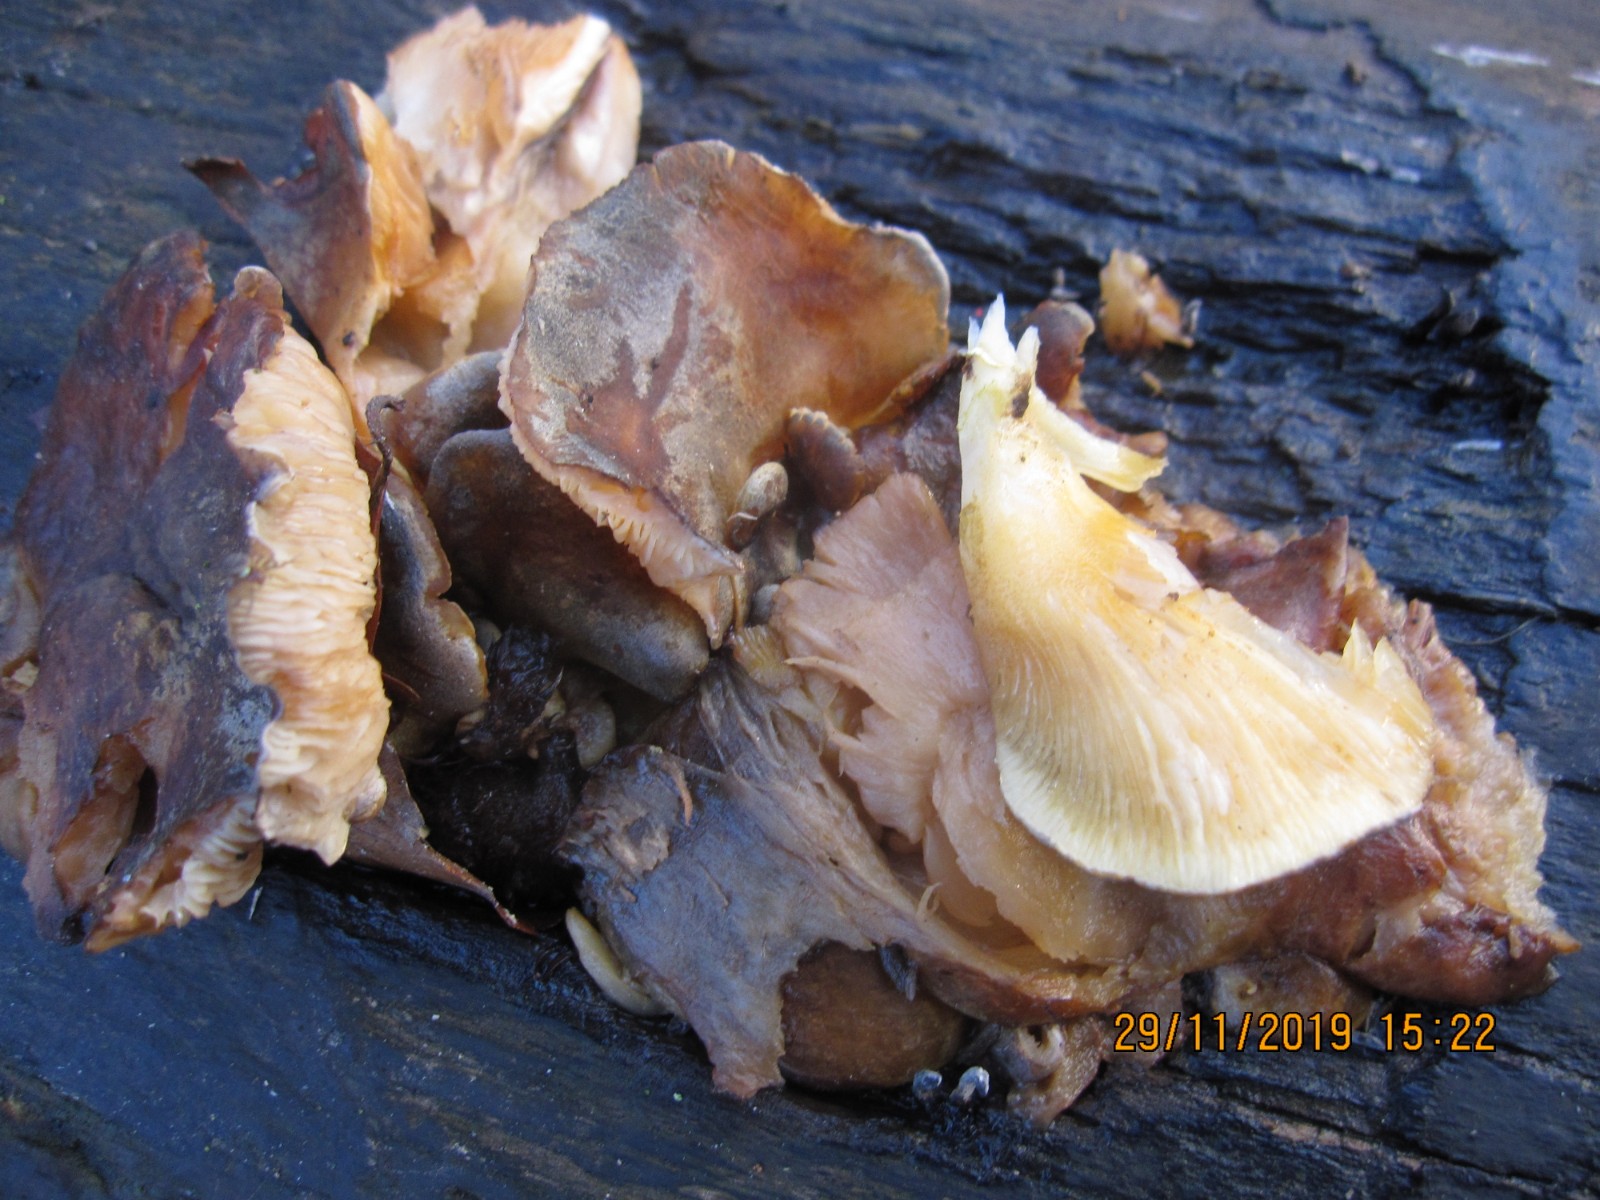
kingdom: Fungi
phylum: Basidiomycota
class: Agaricomycetes
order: Agaricales
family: Sarcomyxaceae
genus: Sarcomyxa
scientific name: Sarcomyxa serotina
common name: gummihat
